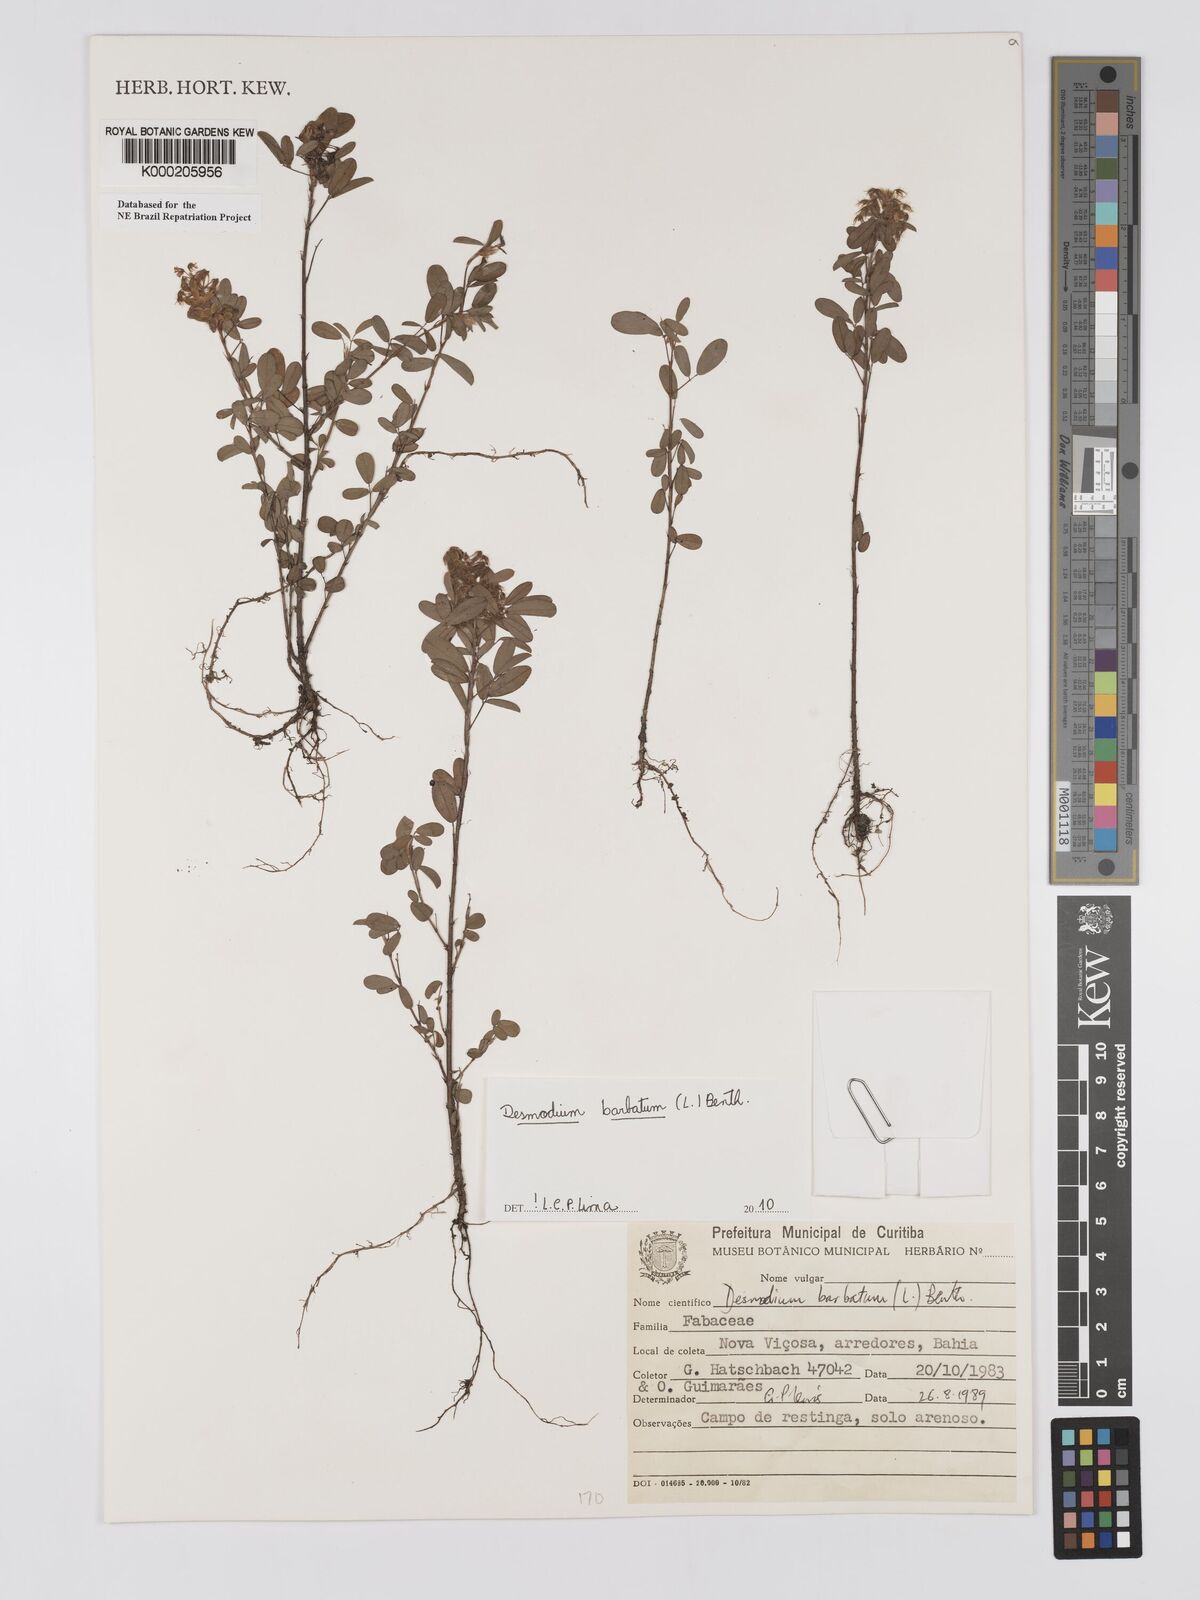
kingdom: Plantae
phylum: Tracheophyta
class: Magnoliopsida
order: Fabales
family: Fabaceae
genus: Grona
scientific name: Grona barbata
